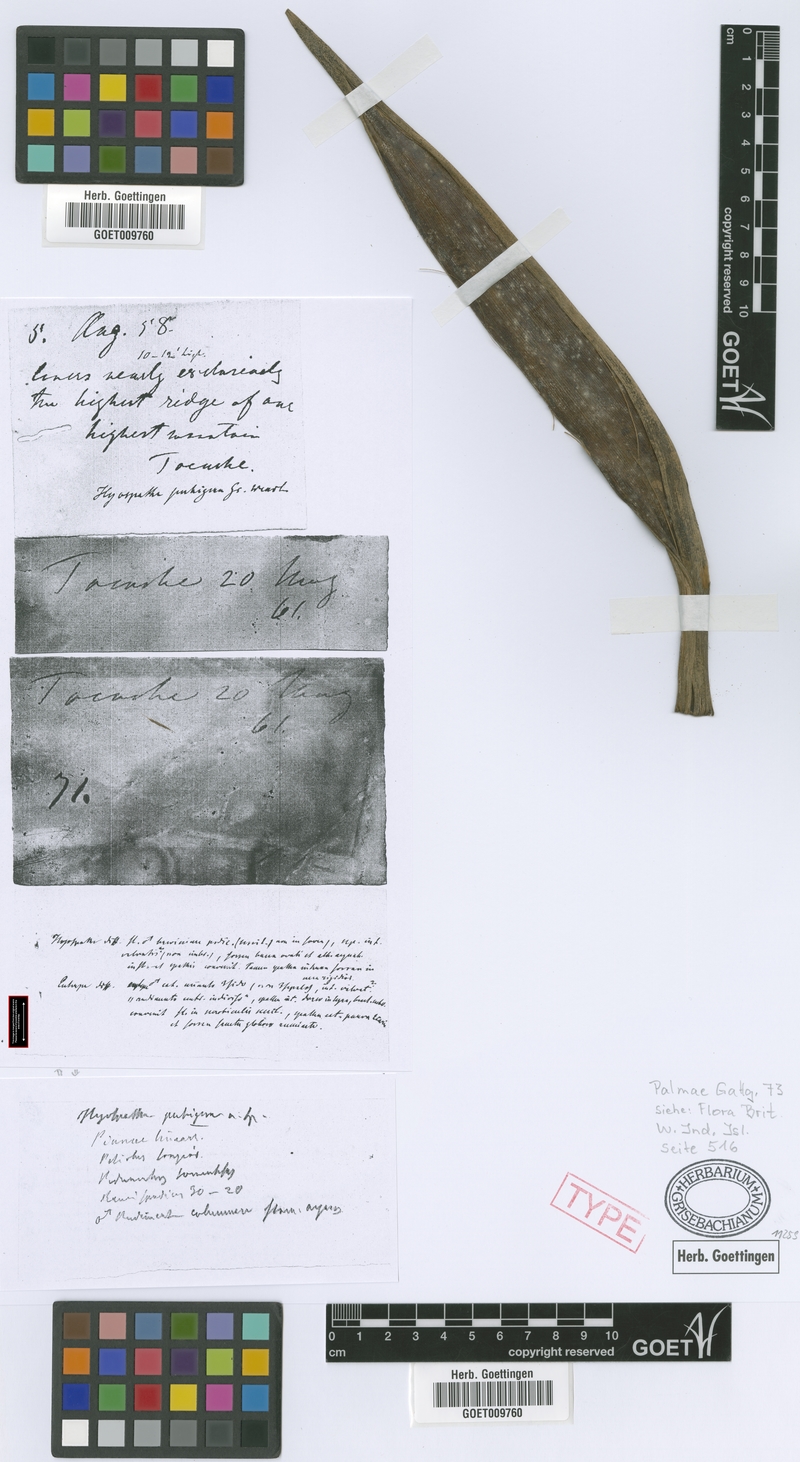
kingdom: Plantae
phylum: Tracheophyta
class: Liliopsida
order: Arecales
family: Arecaceae
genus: Prestoea
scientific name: Prestoea pubigera
